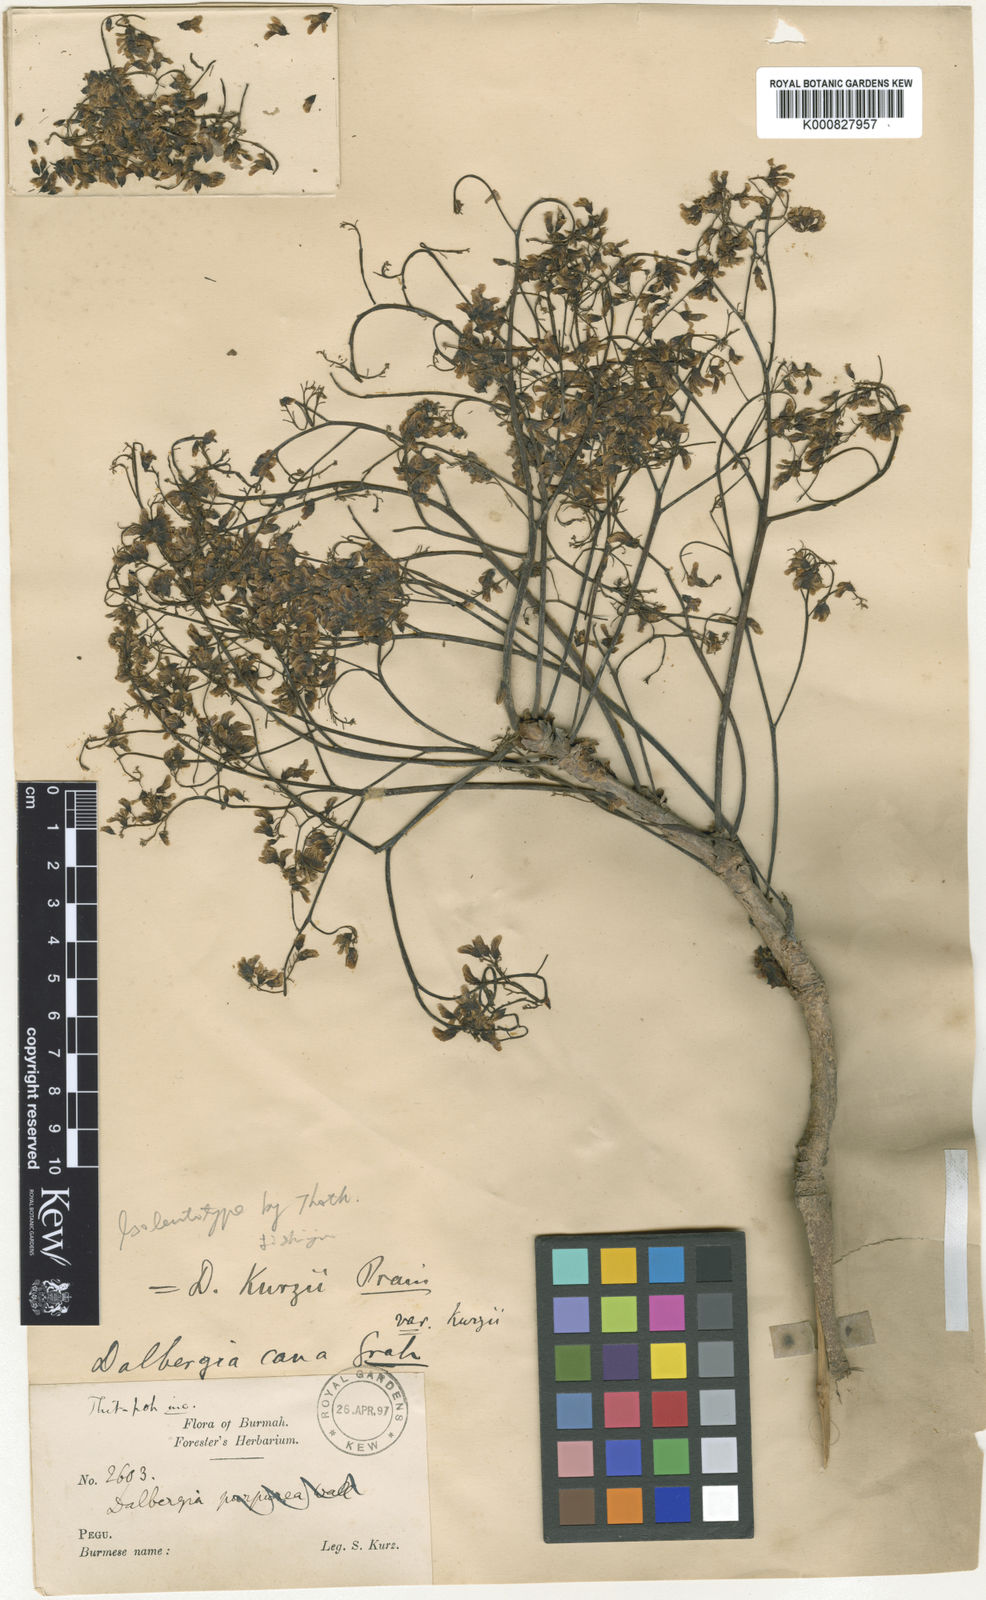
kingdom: Plantae
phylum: Tracheophyta
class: Magnoliopsida
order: Fabales
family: Fabaceae
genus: Dalbergia
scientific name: Dalbergia cana
